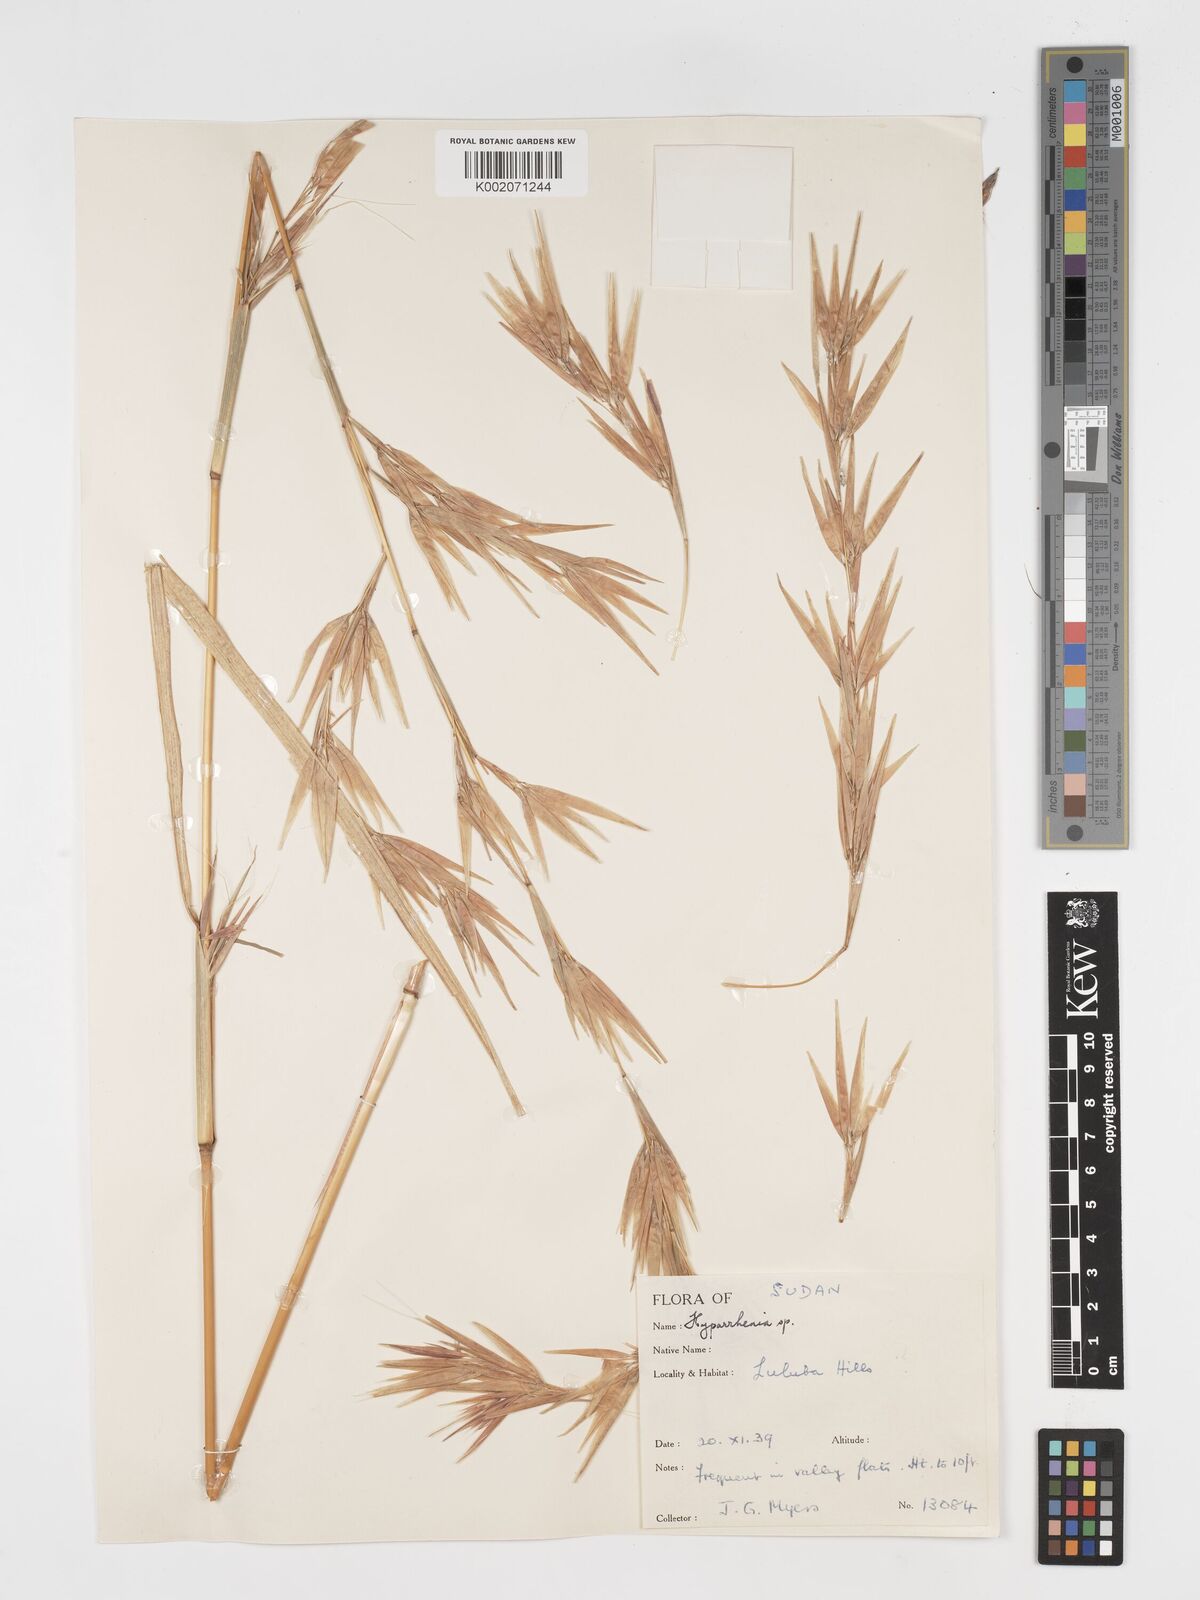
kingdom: Plantae
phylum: Tracheophyta
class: Liliopsida
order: Poales
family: Poaceae
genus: Hyparrhenia
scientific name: Hyparrhenia madaropoda
